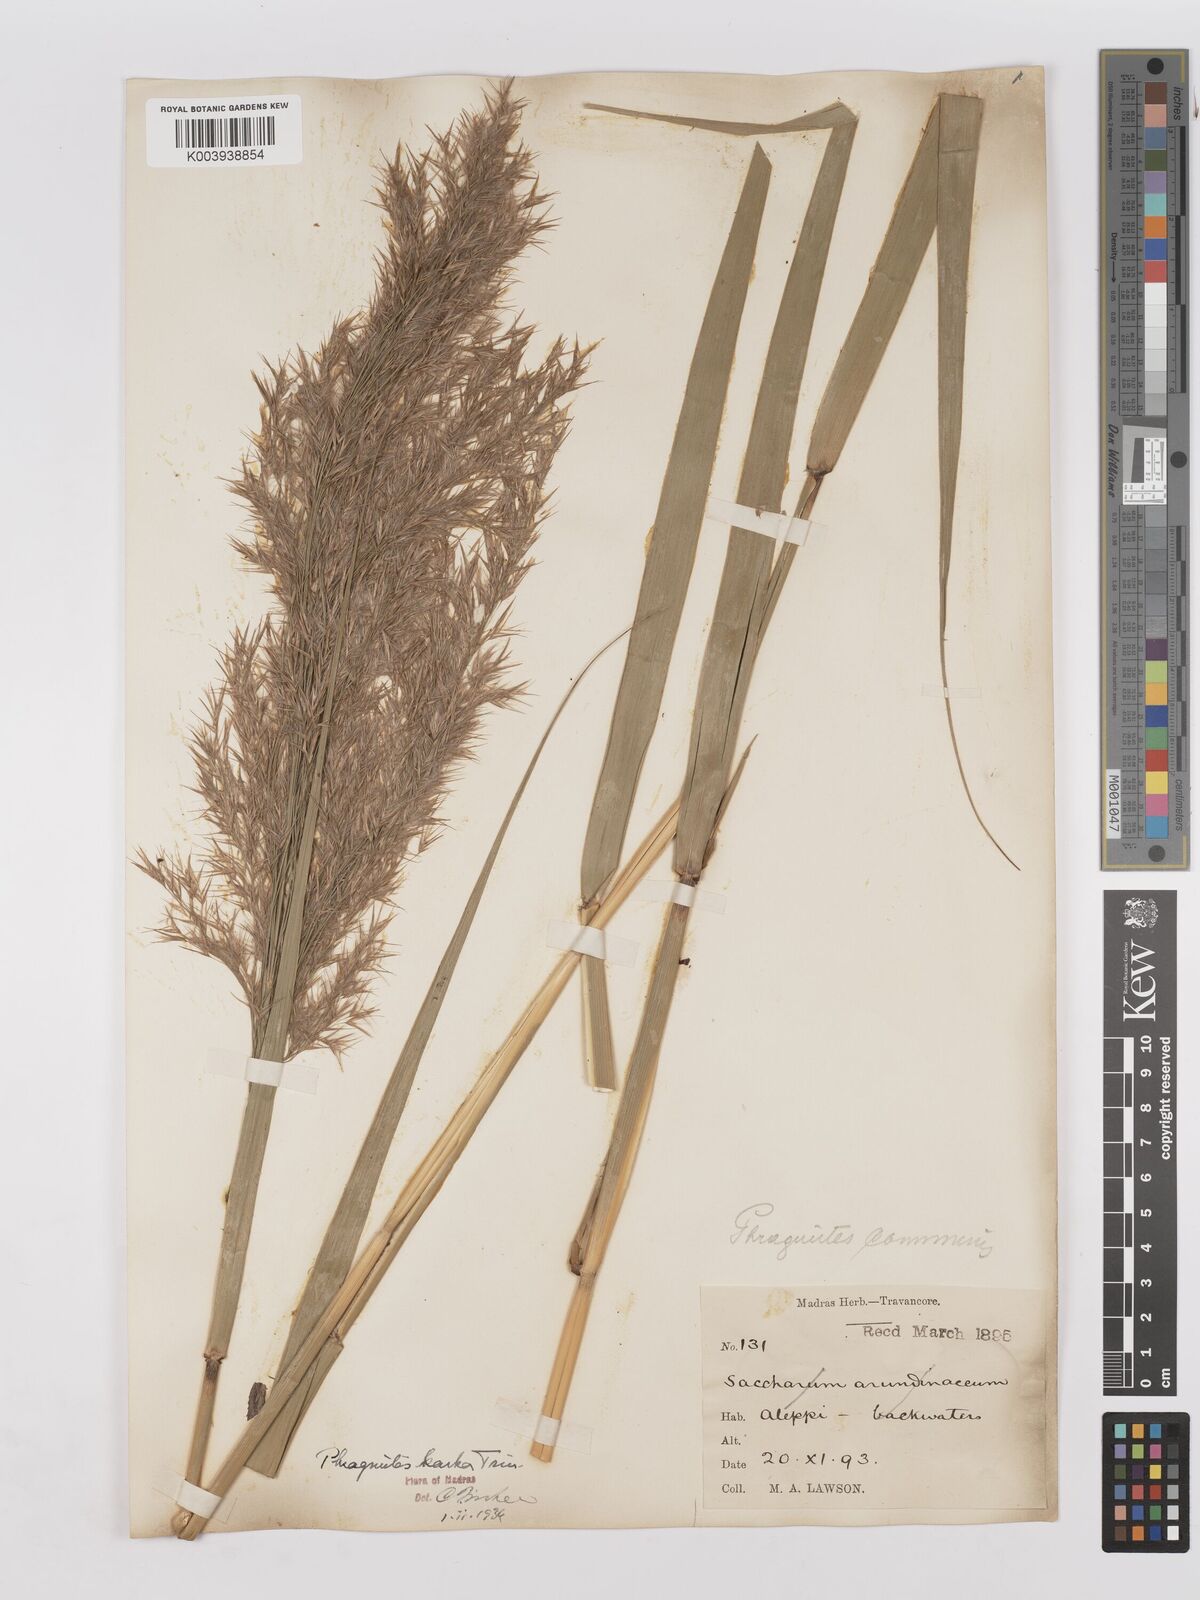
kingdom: Plantae
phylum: Tracheophyta
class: Liliopsida
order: Poales
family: Poaceae
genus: Phragmites
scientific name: Phragmites karka
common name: Tropical reed
